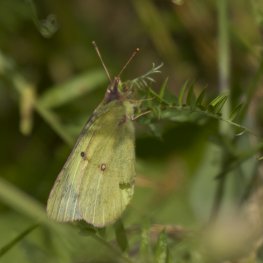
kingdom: Animalia
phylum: Arthropoda
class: Insecta
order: Lepidoptera
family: Pieridae
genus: Colias
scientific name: Colias philodice
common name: Clouded Sulphur
